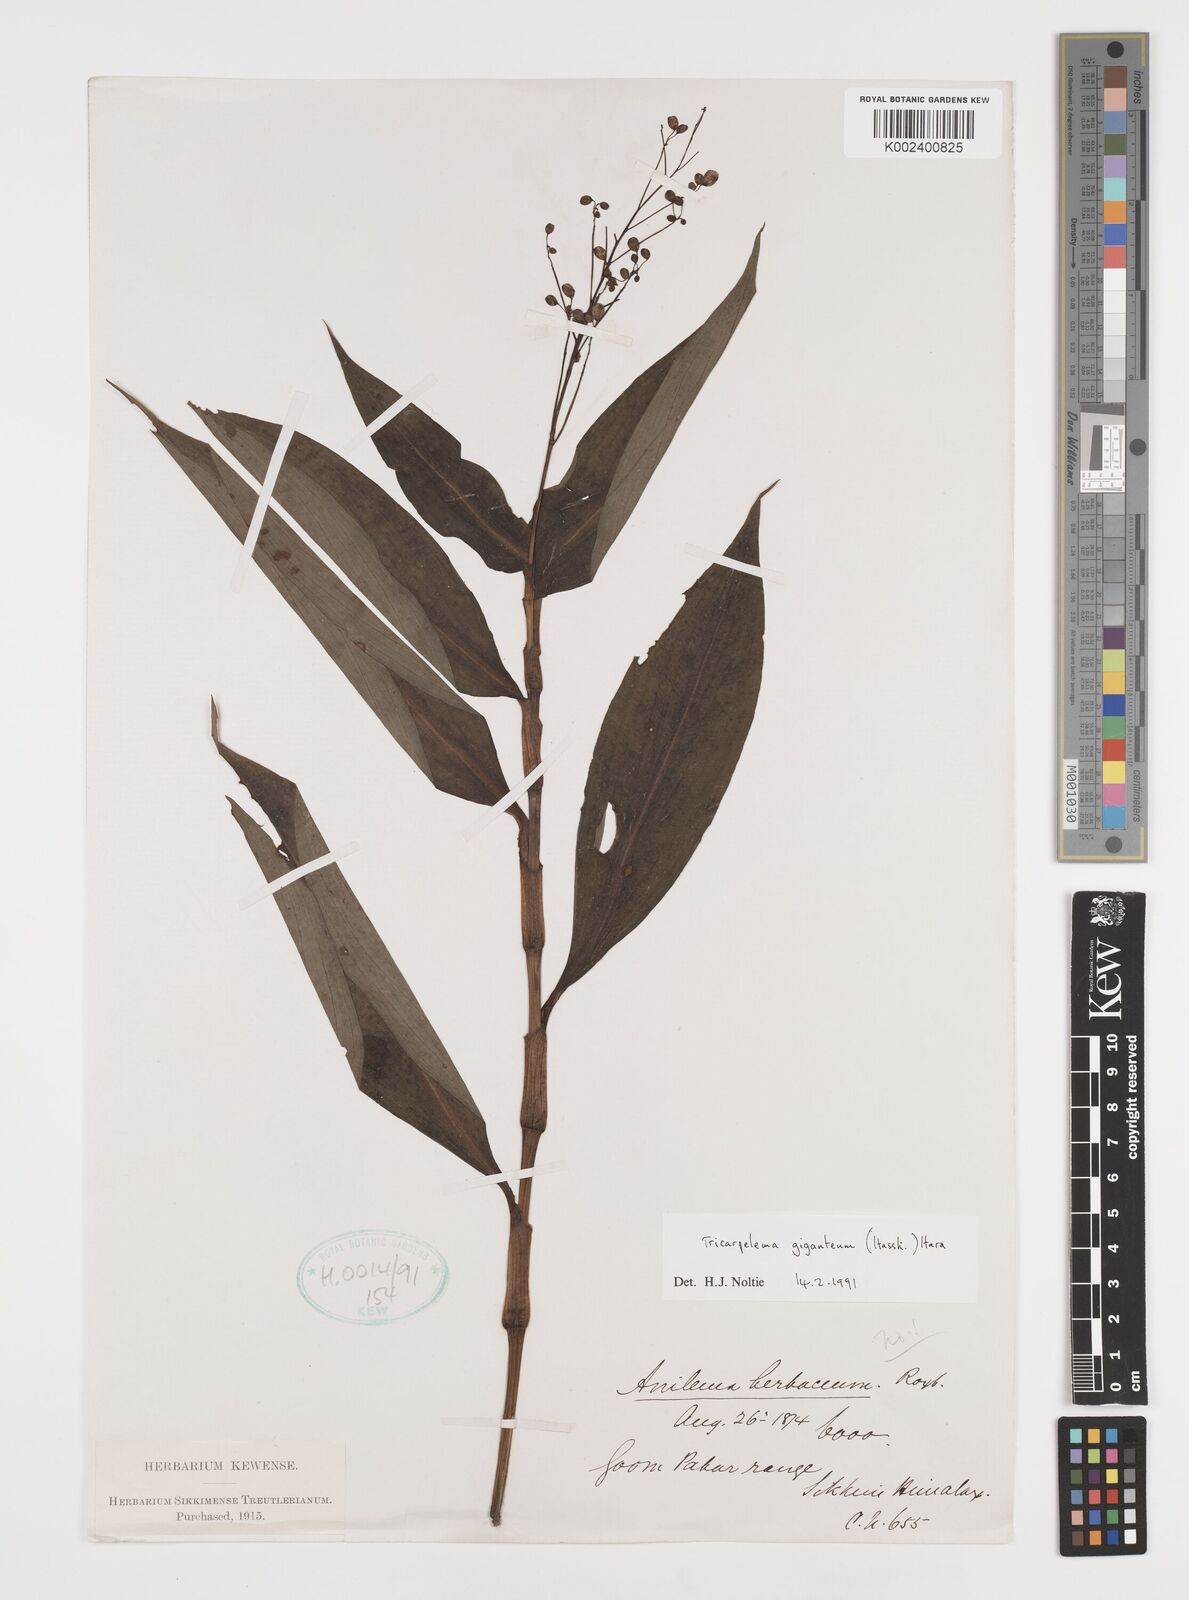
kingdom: Plantae
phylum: Tracheophyta
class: Liliopsida
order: Commelinales
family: Commelinaceae
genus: Tricarpelema
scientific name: Tricarpelema giganteum
